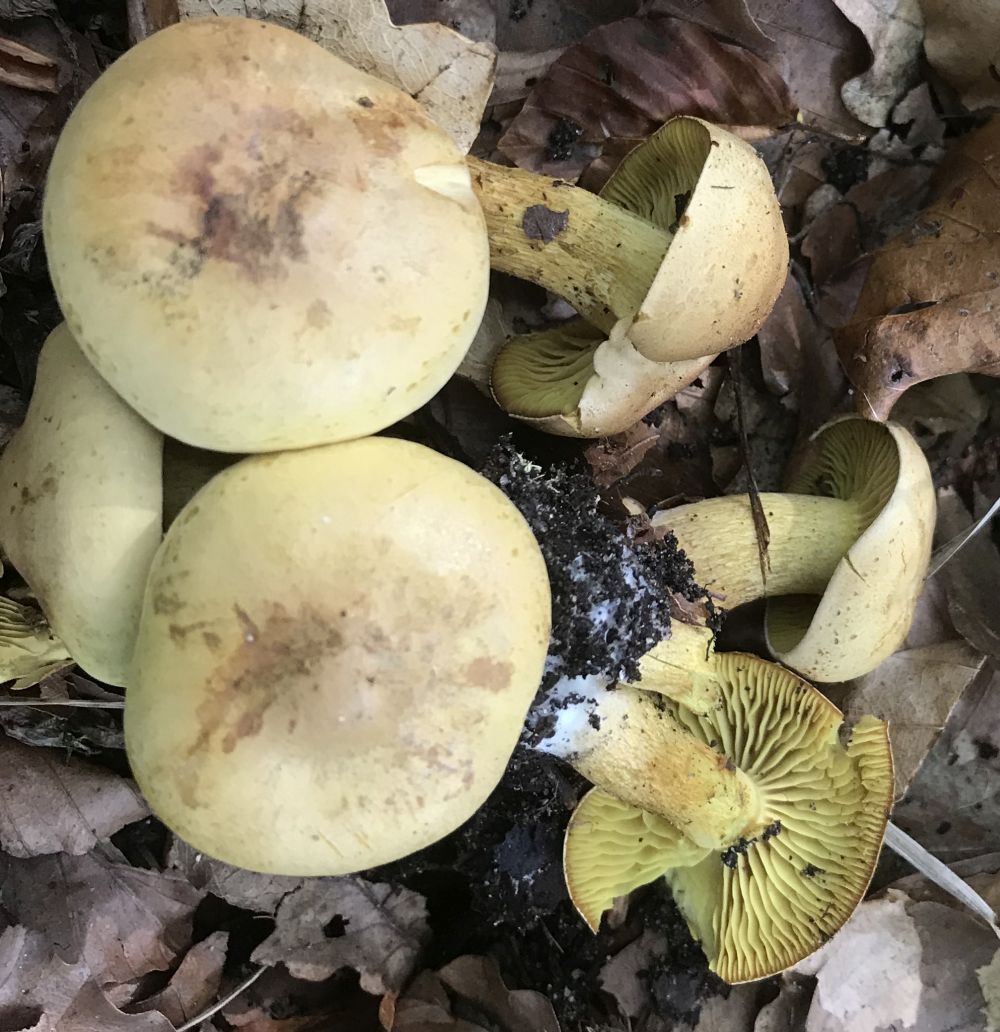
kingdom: Fungi
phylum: Basidiomycota
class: Agaricomycetes
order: Agaricales
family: Tricholomataceae
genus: Tricholoma
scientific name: Tricholoma sulphureum
